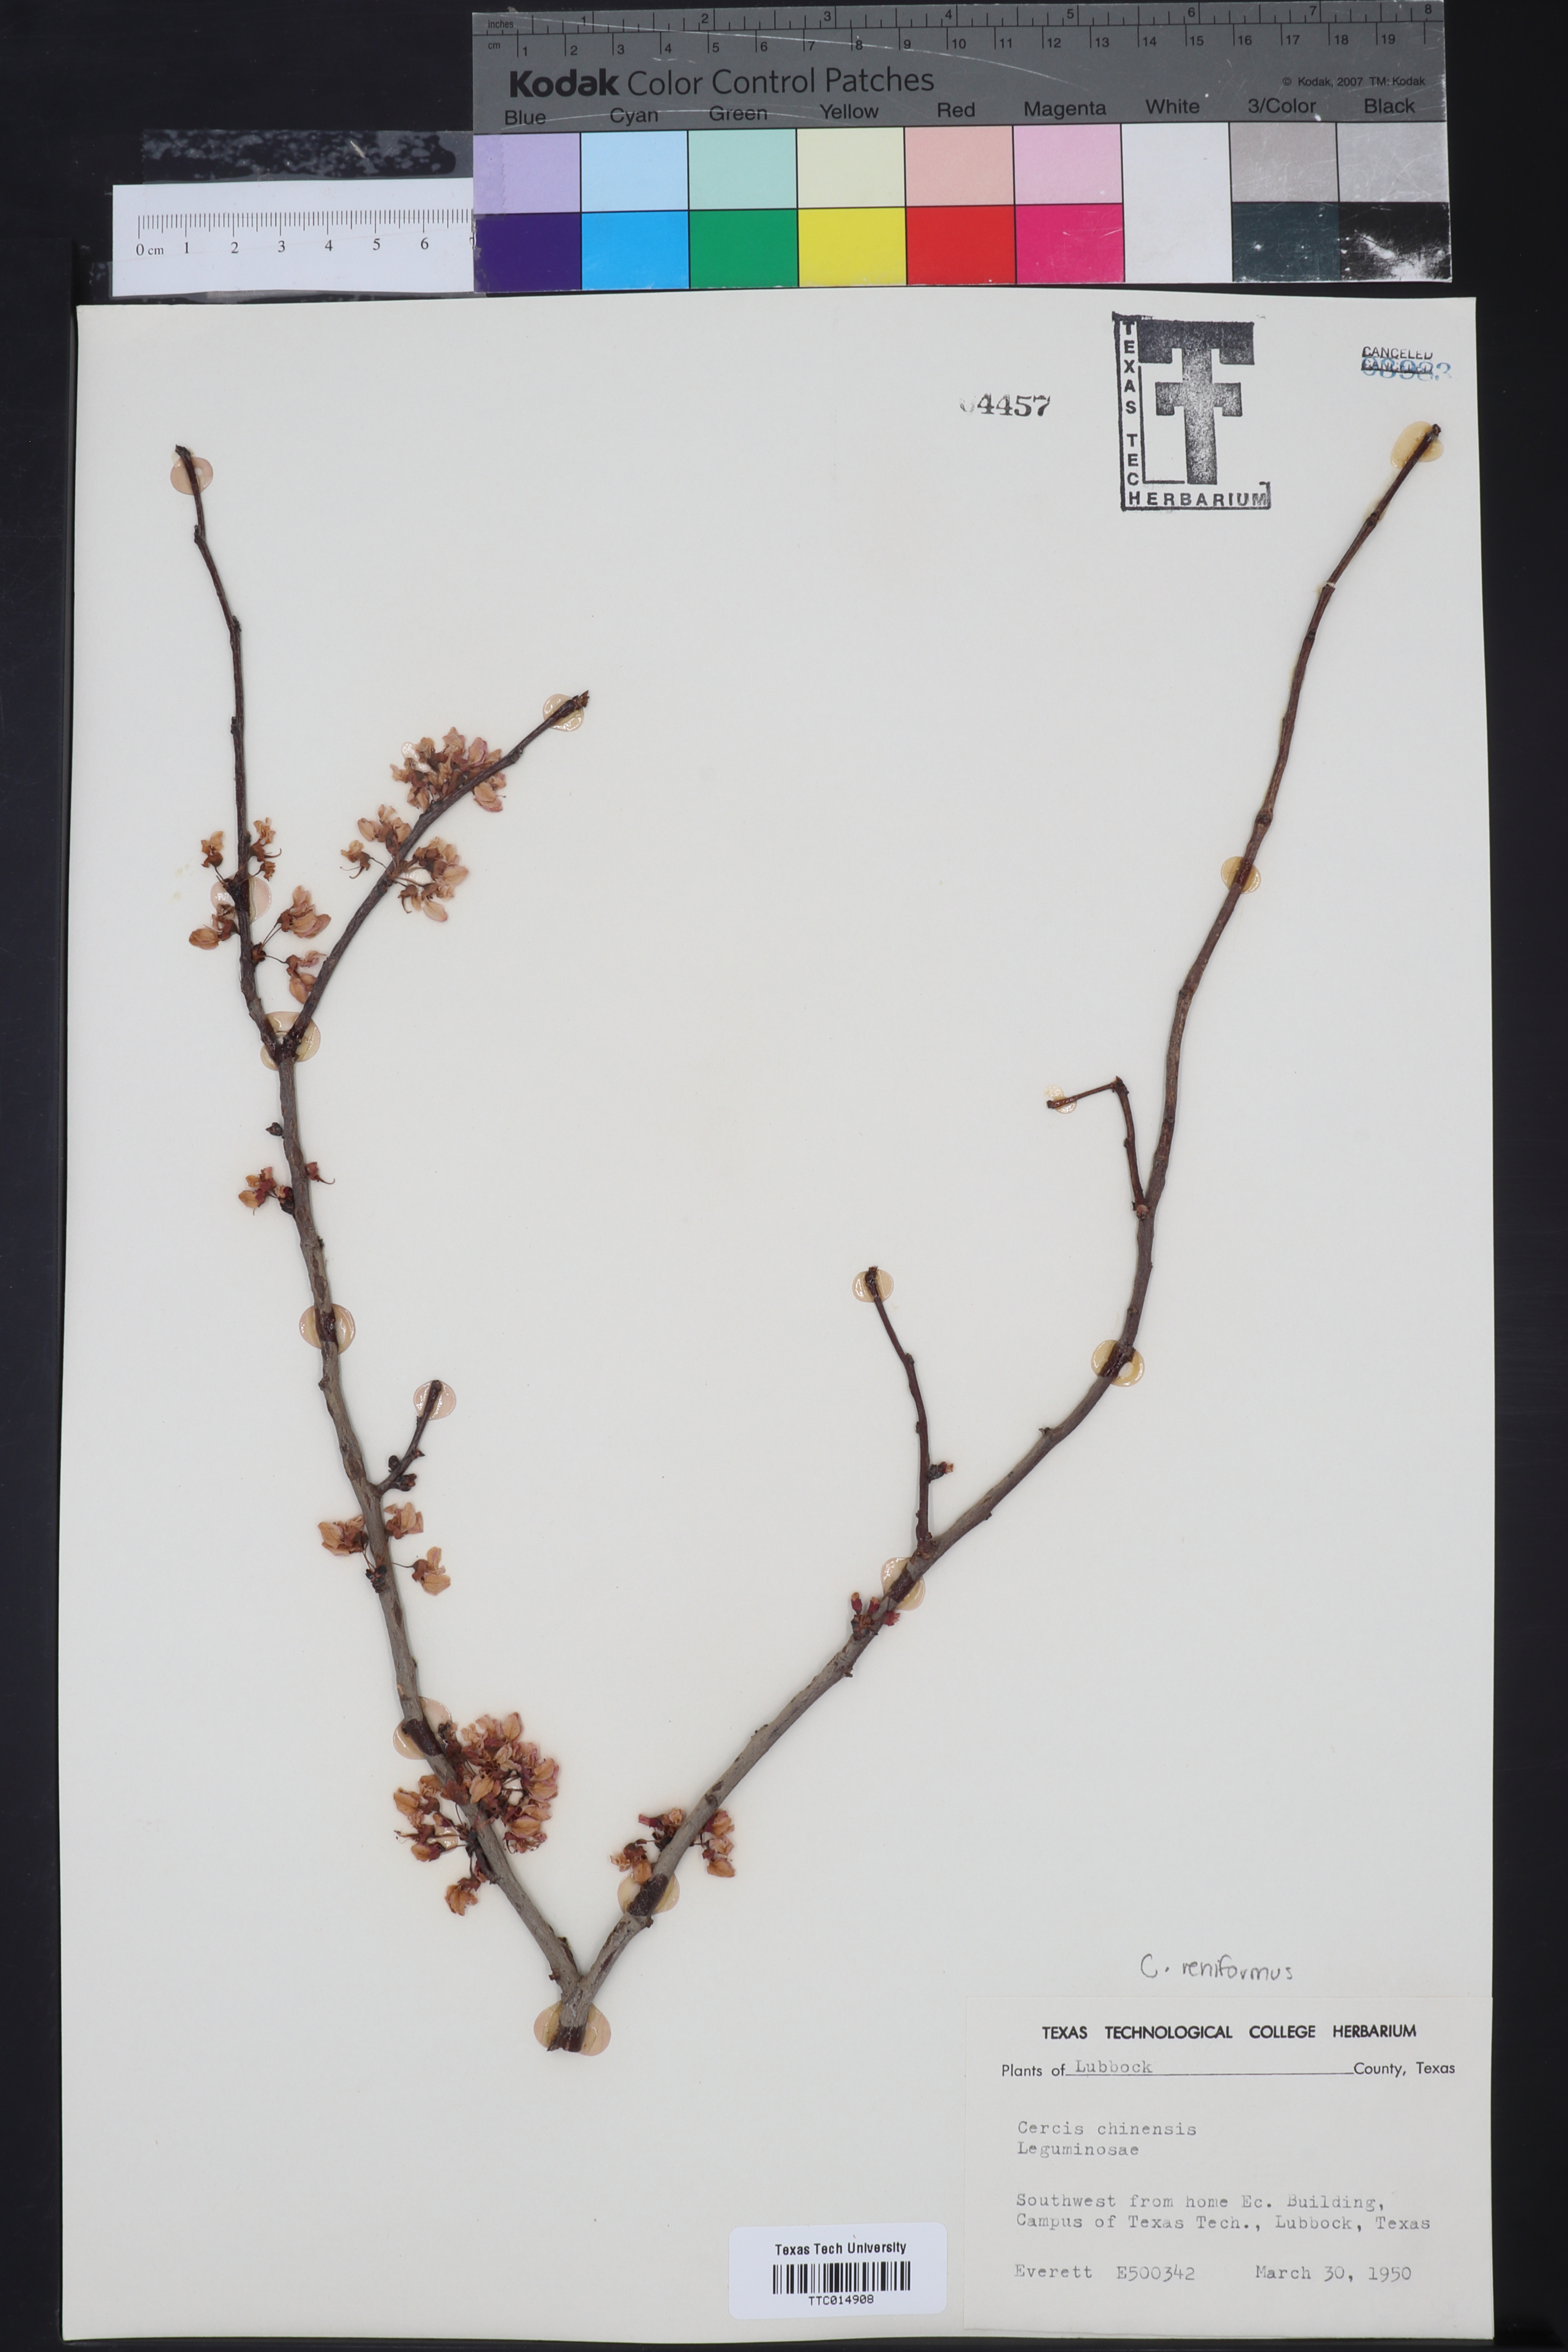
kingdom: Plantae
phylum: Tracheophyta
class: Magnoliopsida
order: Fabales
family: Fabaceae
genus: Cercis
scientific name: Cercis chinensis
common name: Chinese redbud
